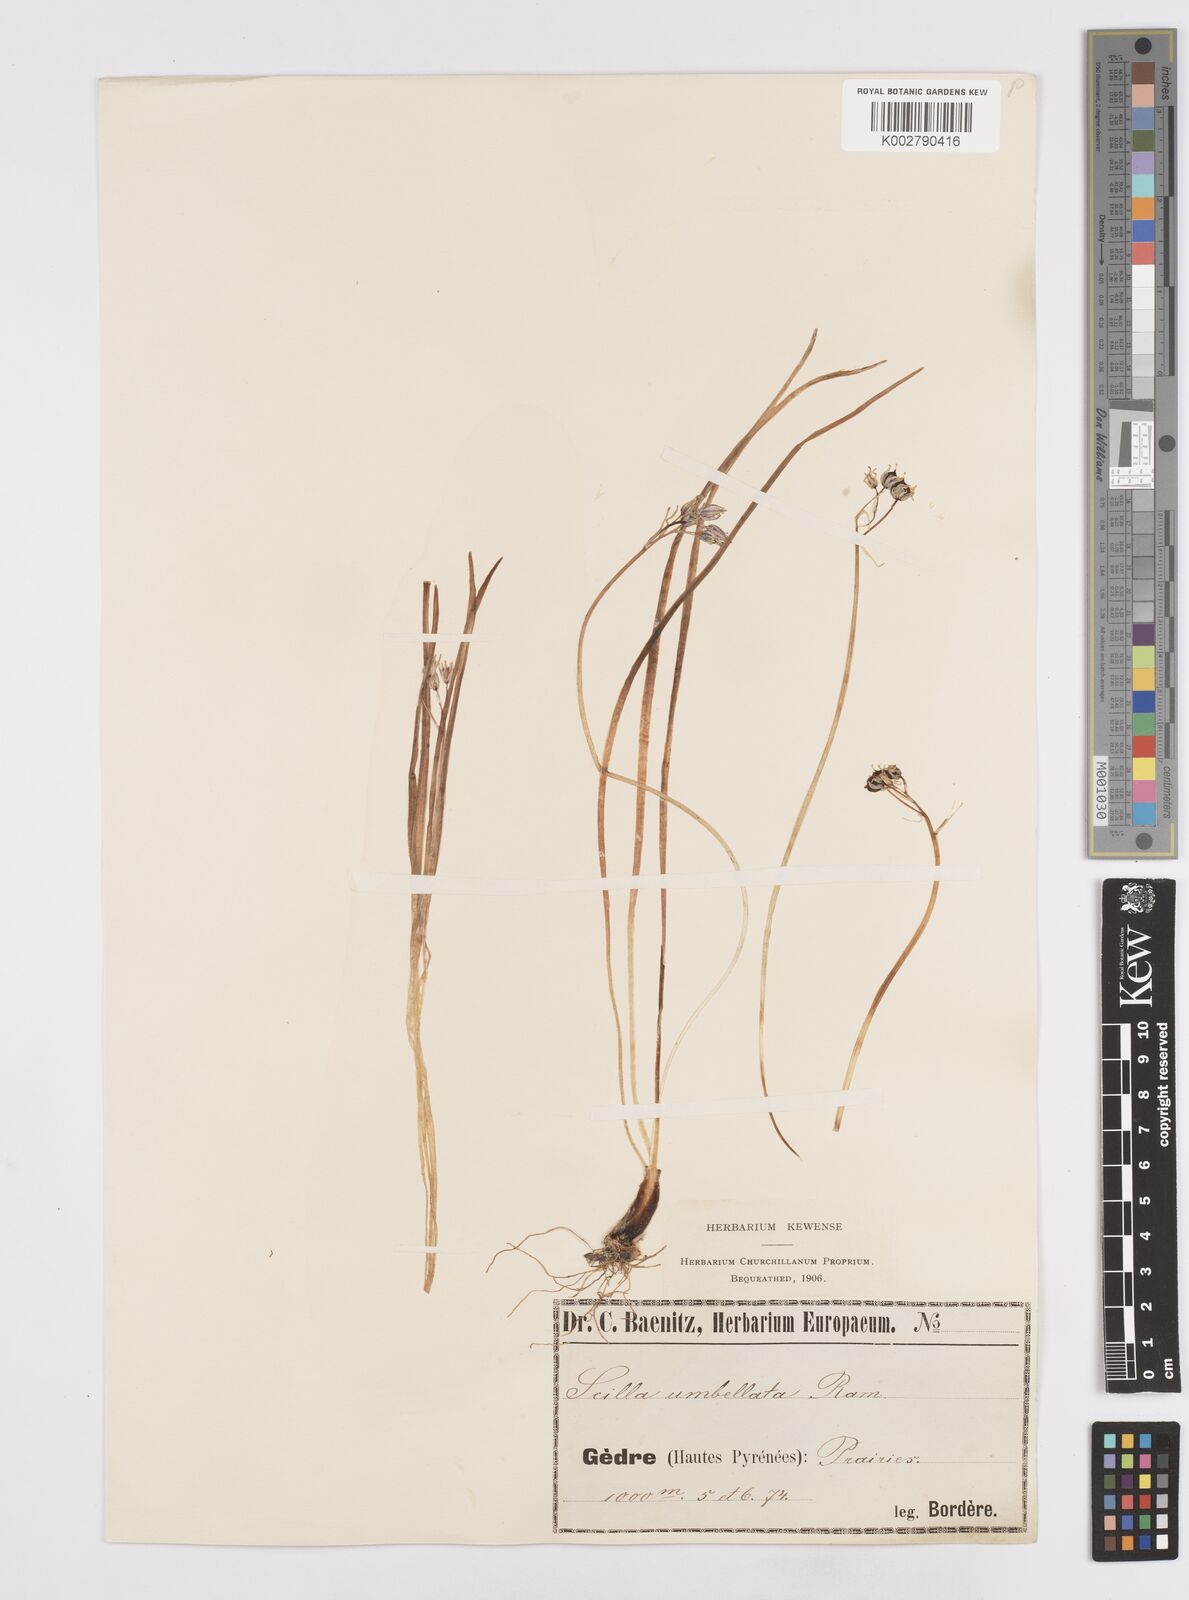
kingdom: Plantae
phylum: Tracheophyta
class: Liliopsida
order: Asparagales
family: Asparagaceae
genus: Scilla
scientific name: Scilla verna
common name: Spring squill
